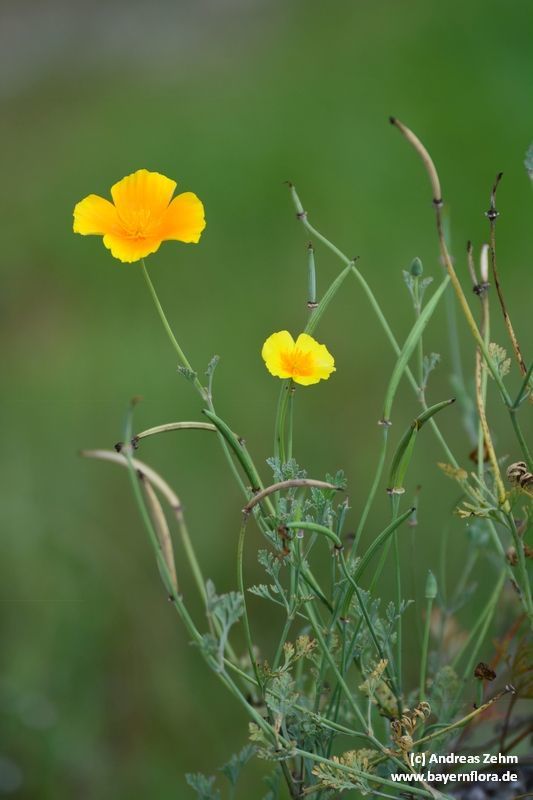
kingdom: Plantae
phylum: Tracheophyta
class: Magnoliopsida
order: Ranunculales
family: Papaveraceae
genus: Eschscholzia
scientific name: Eschscholzia californica
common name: California poppy
